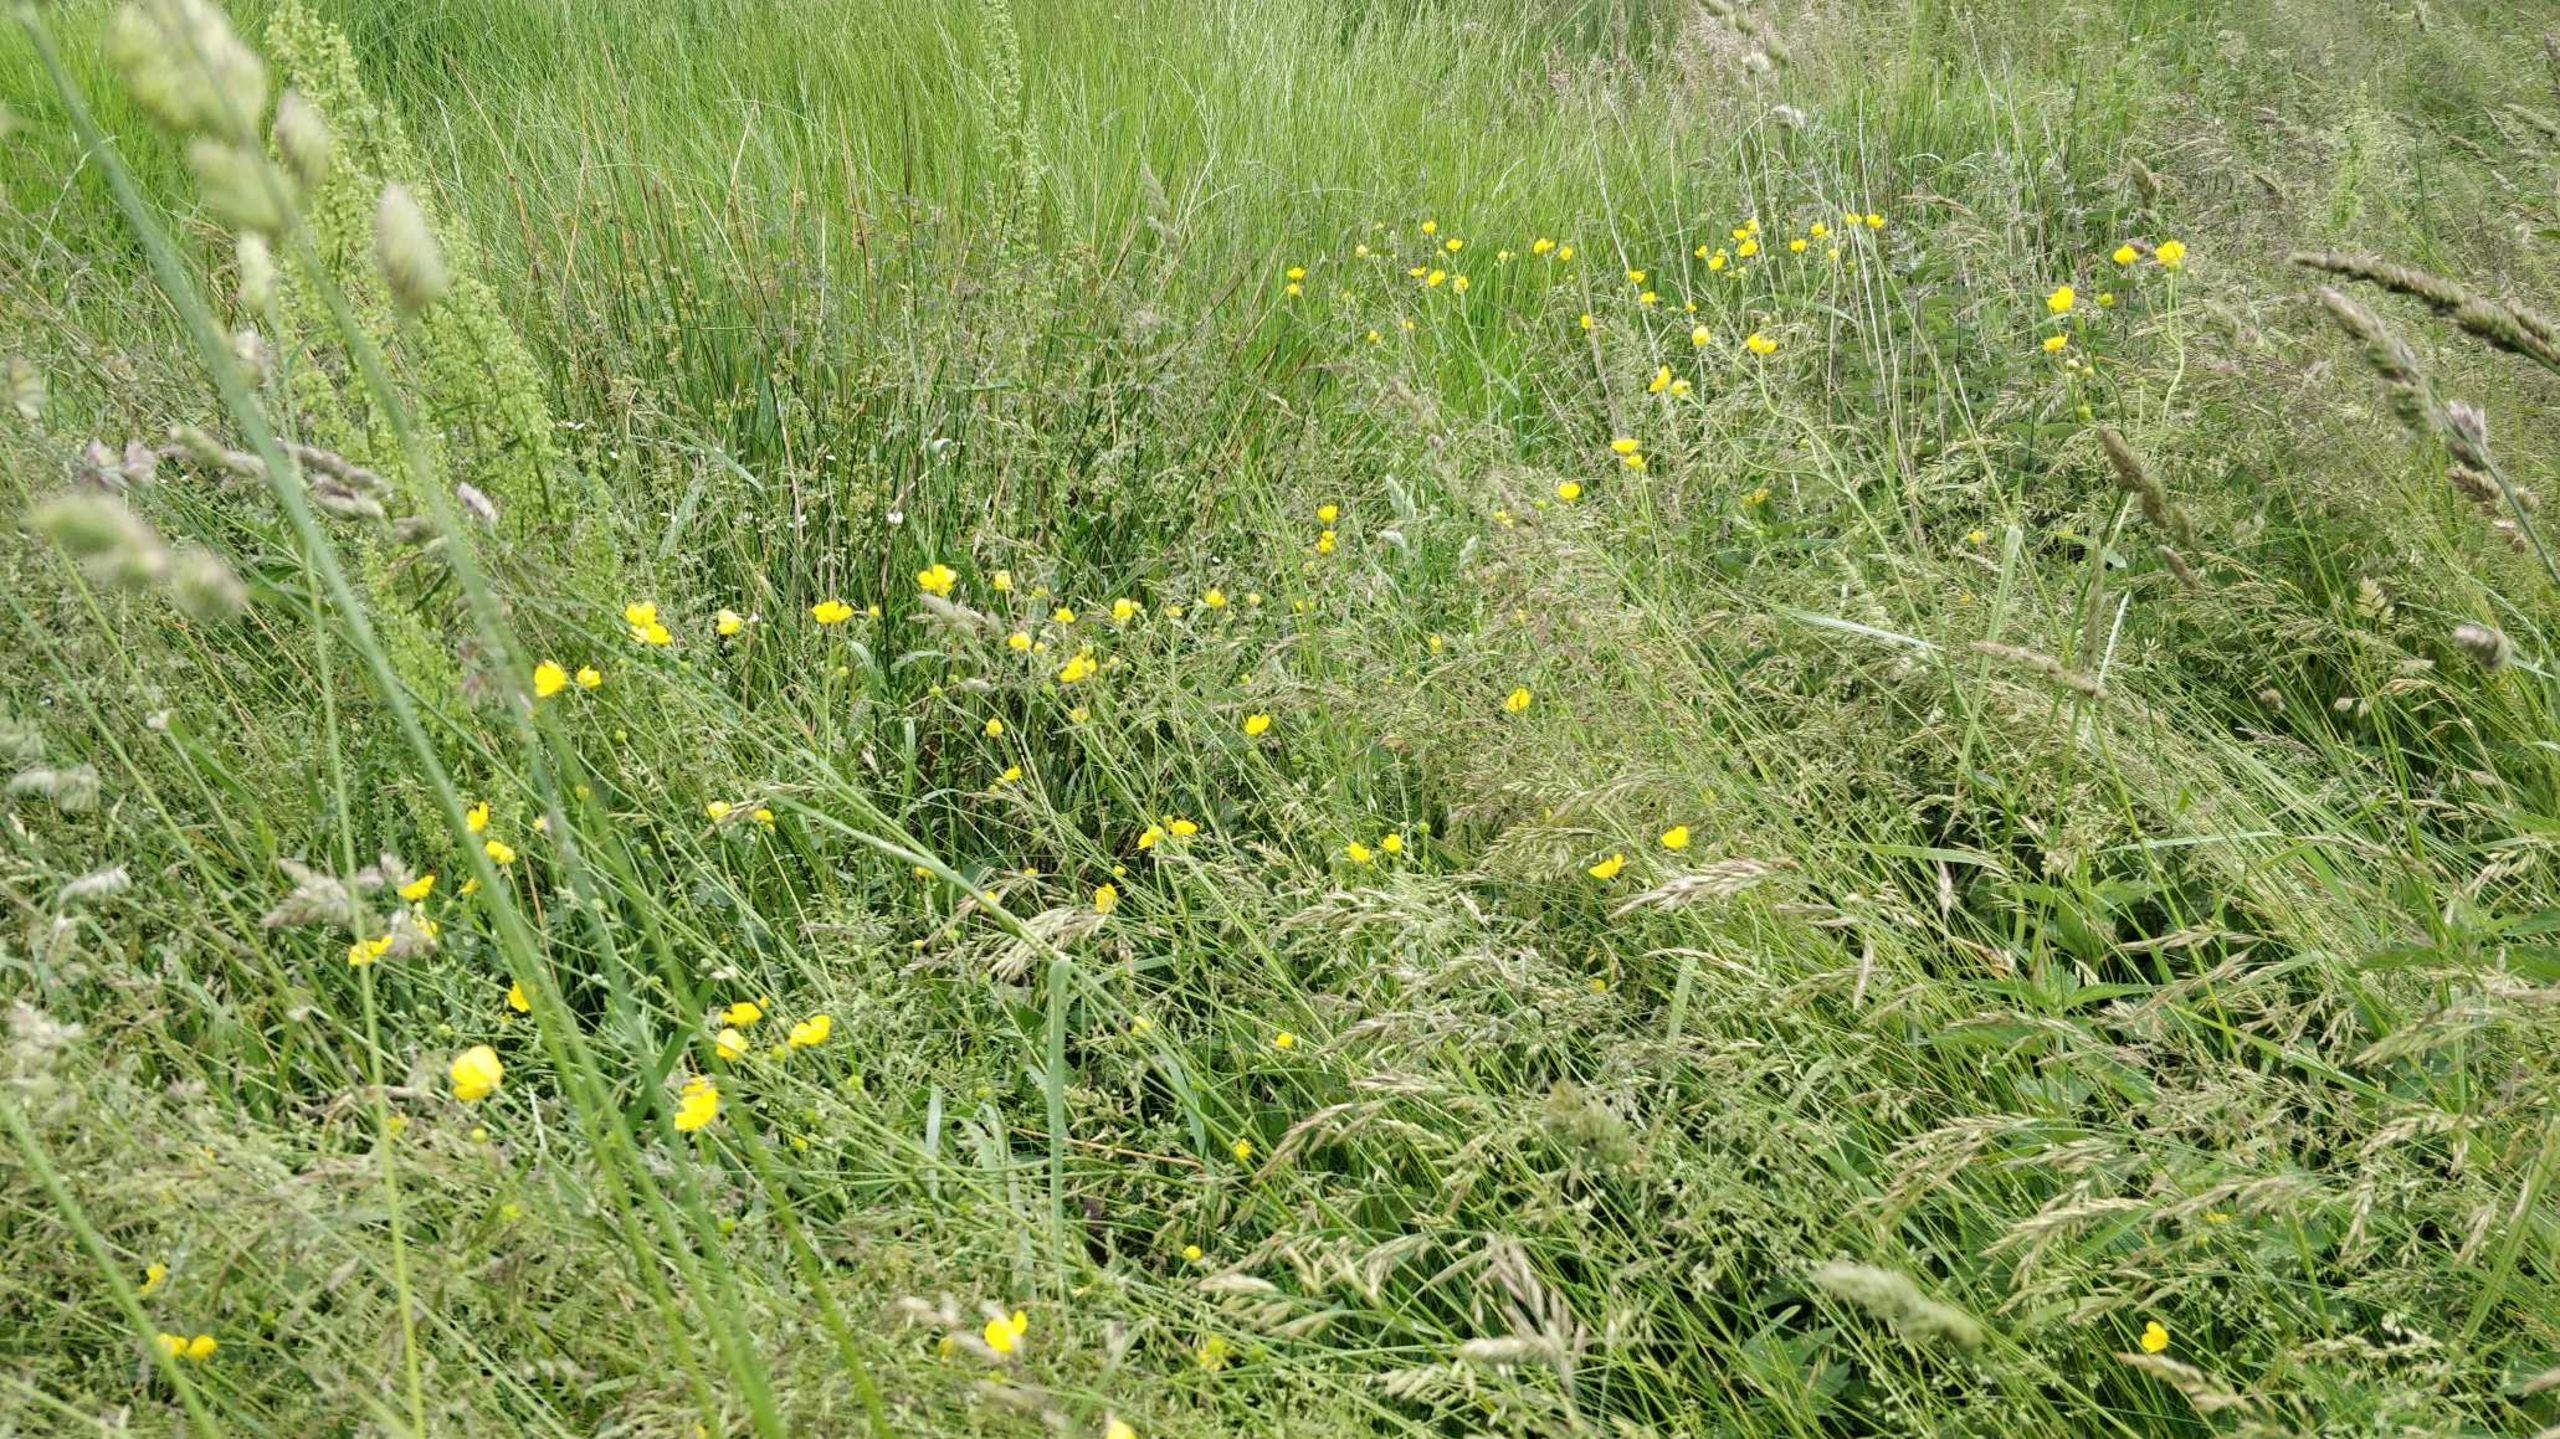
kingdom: Plantae
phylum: Tracheophyta
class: Magnoliopsida
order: Ranunculales
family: Ranunculaceae
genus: Ranunculus
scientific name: Ranunculus acris
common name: Bidende ranunkel
